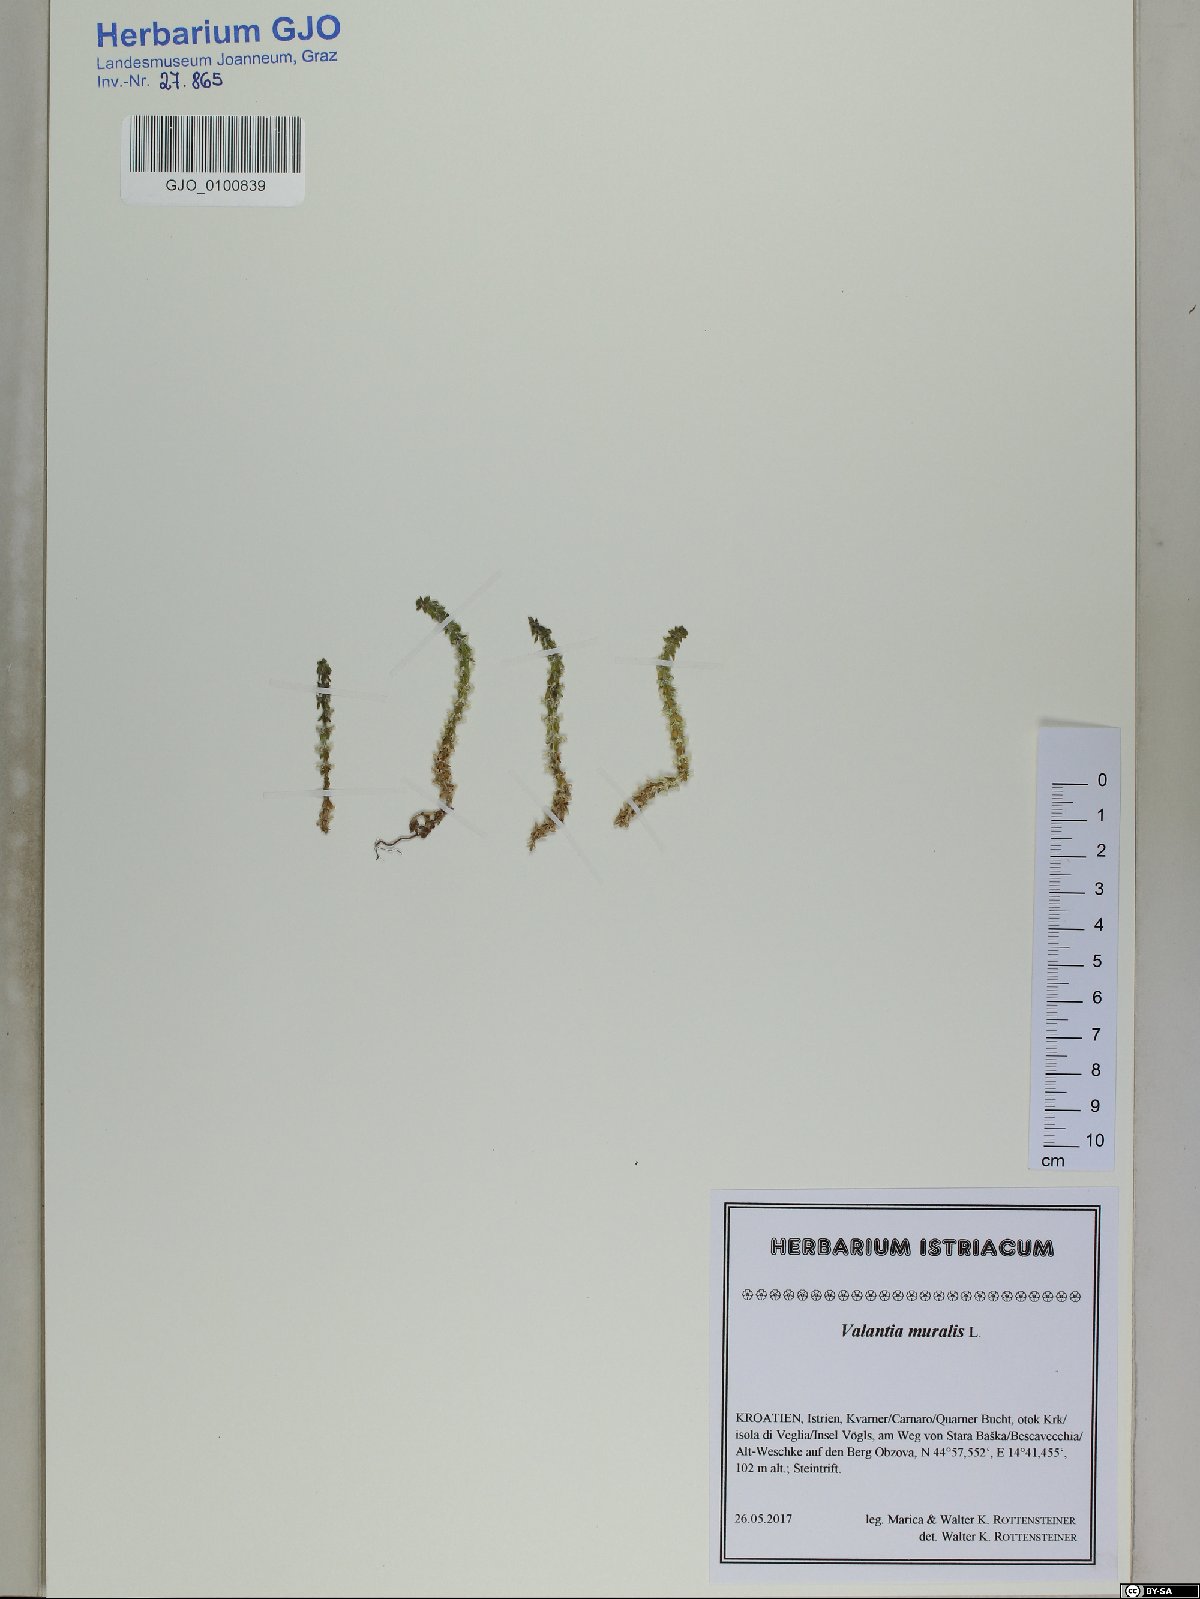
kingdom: Plantae
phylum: Tracheophyta
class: Magnoliopsida
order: Gentianales
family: Rubiaceae
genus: Valantia
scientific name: Valantia muralis
